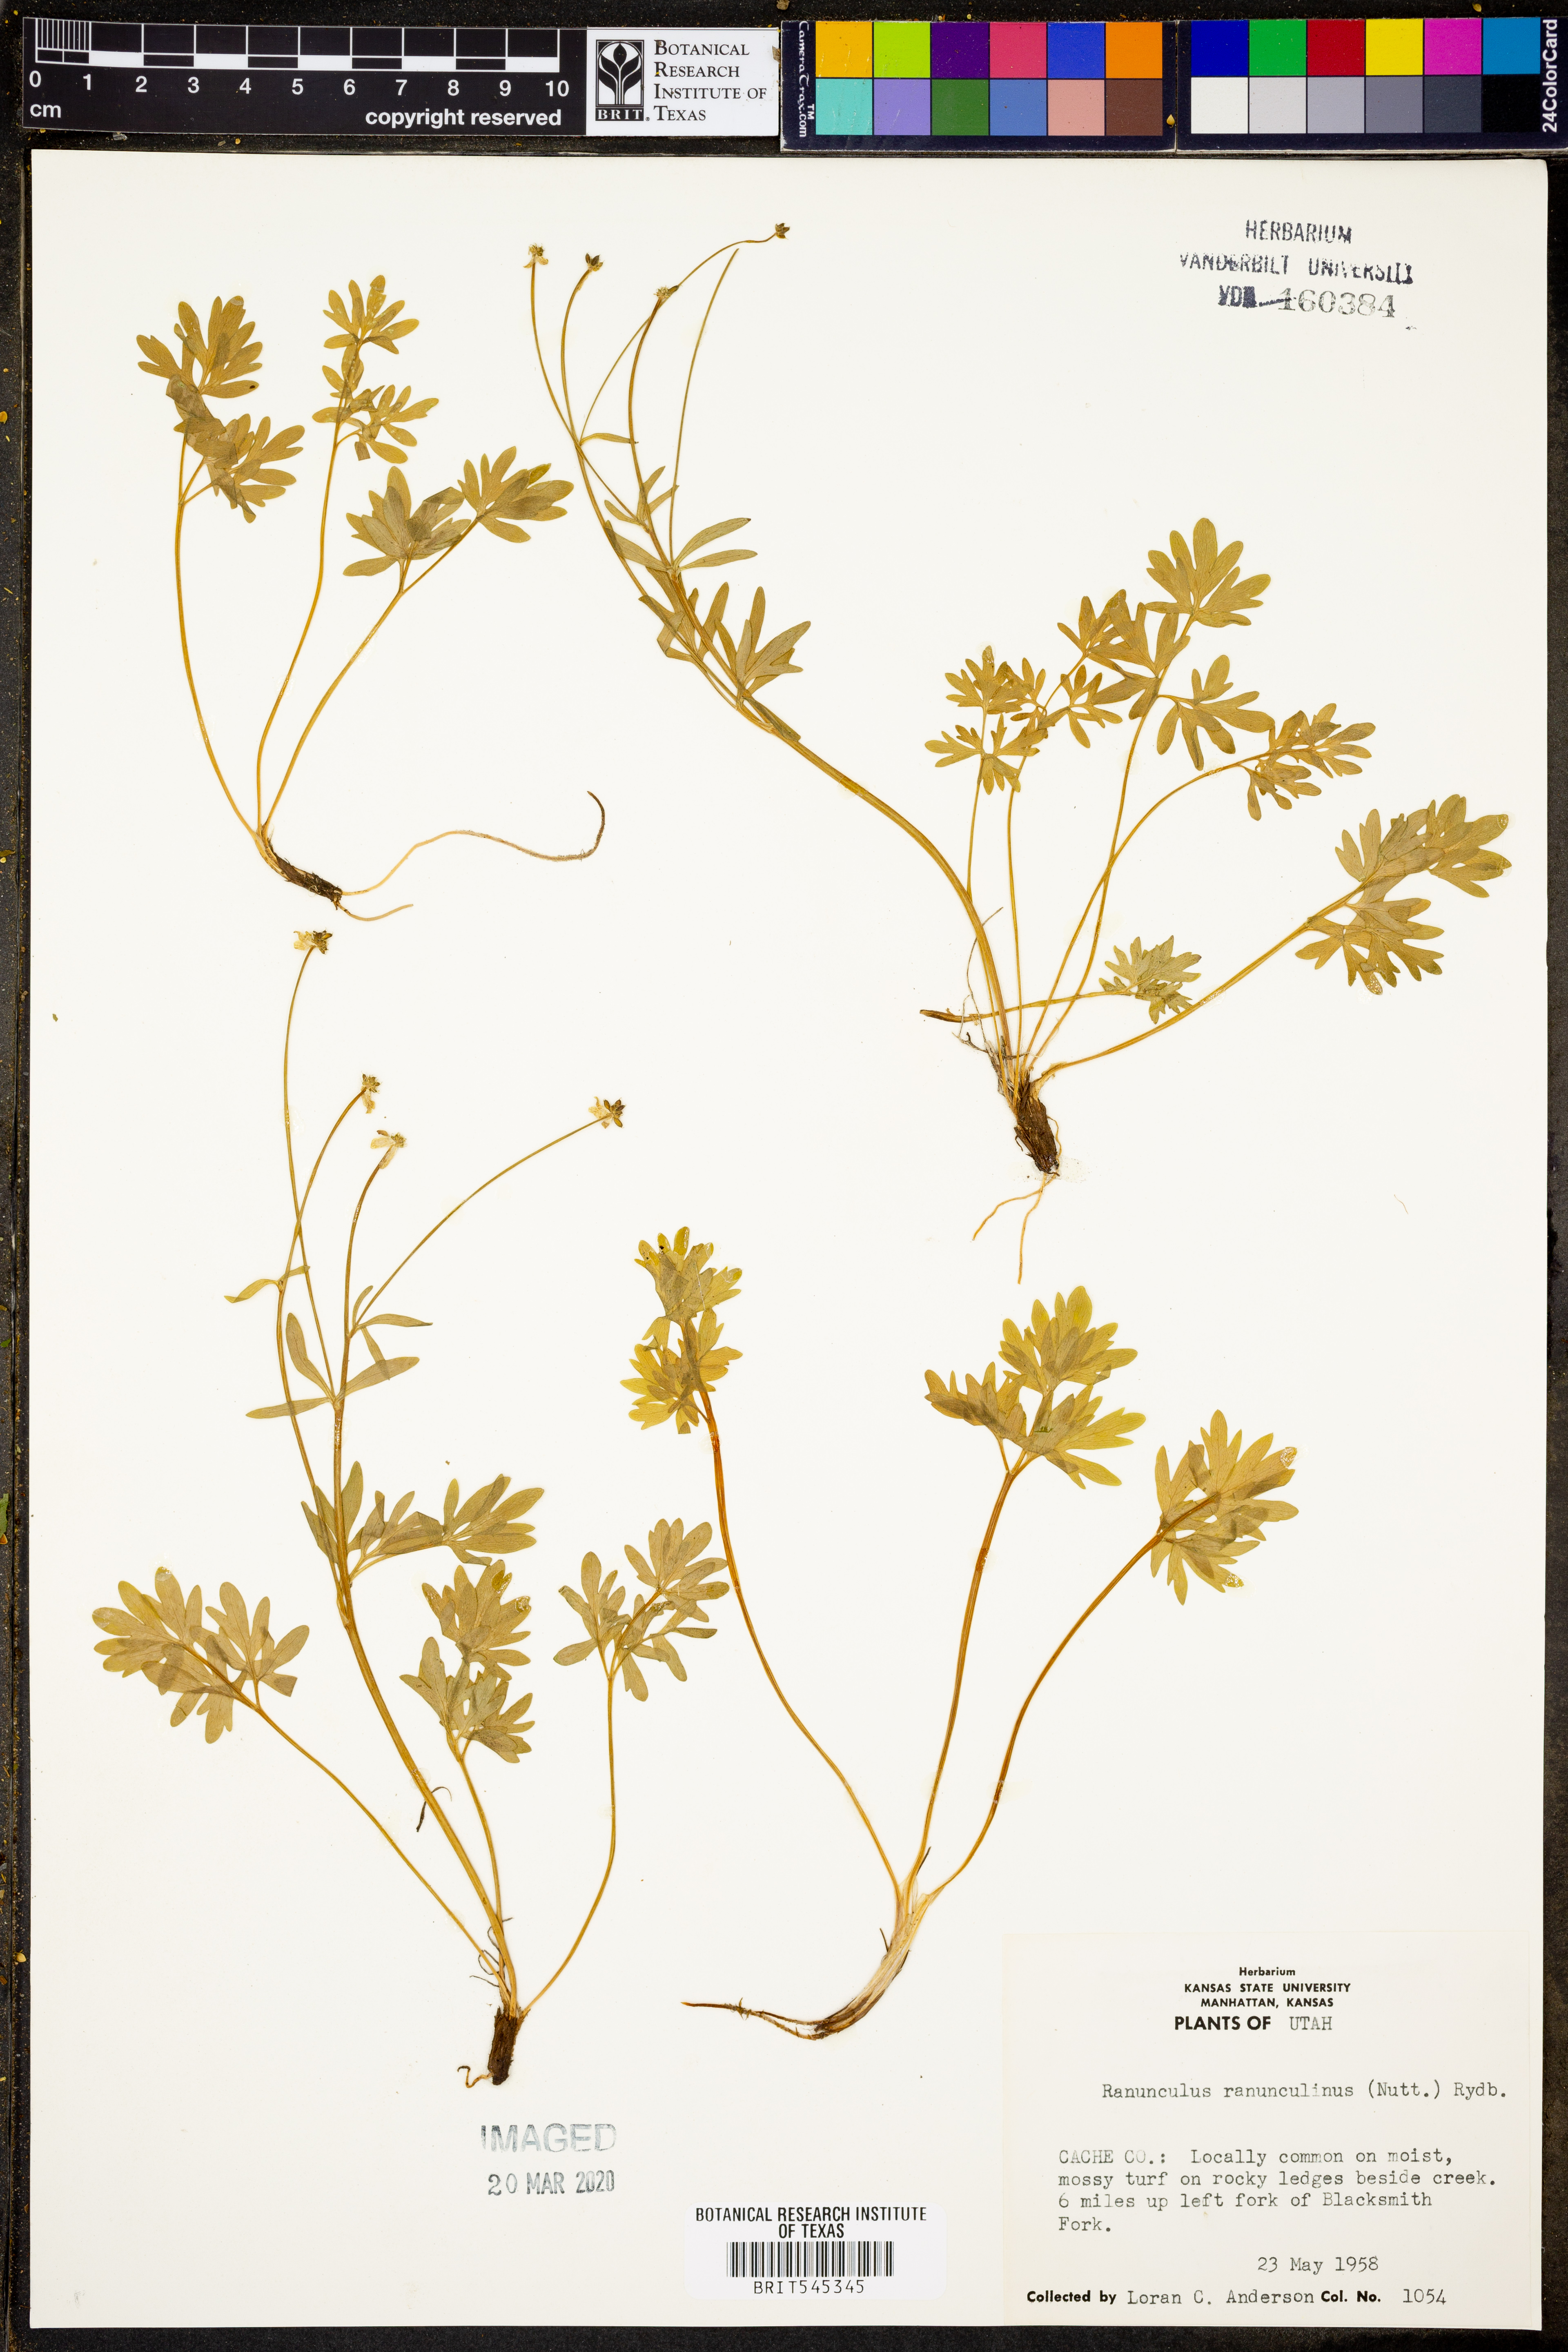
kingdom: Plantae
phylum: Tracheophyta
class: Magnoliopsida
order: Ranunculales
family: Ranunculaceae
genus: Cyrtorhyncha
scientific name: Cyrtorhyncha ranunculina
